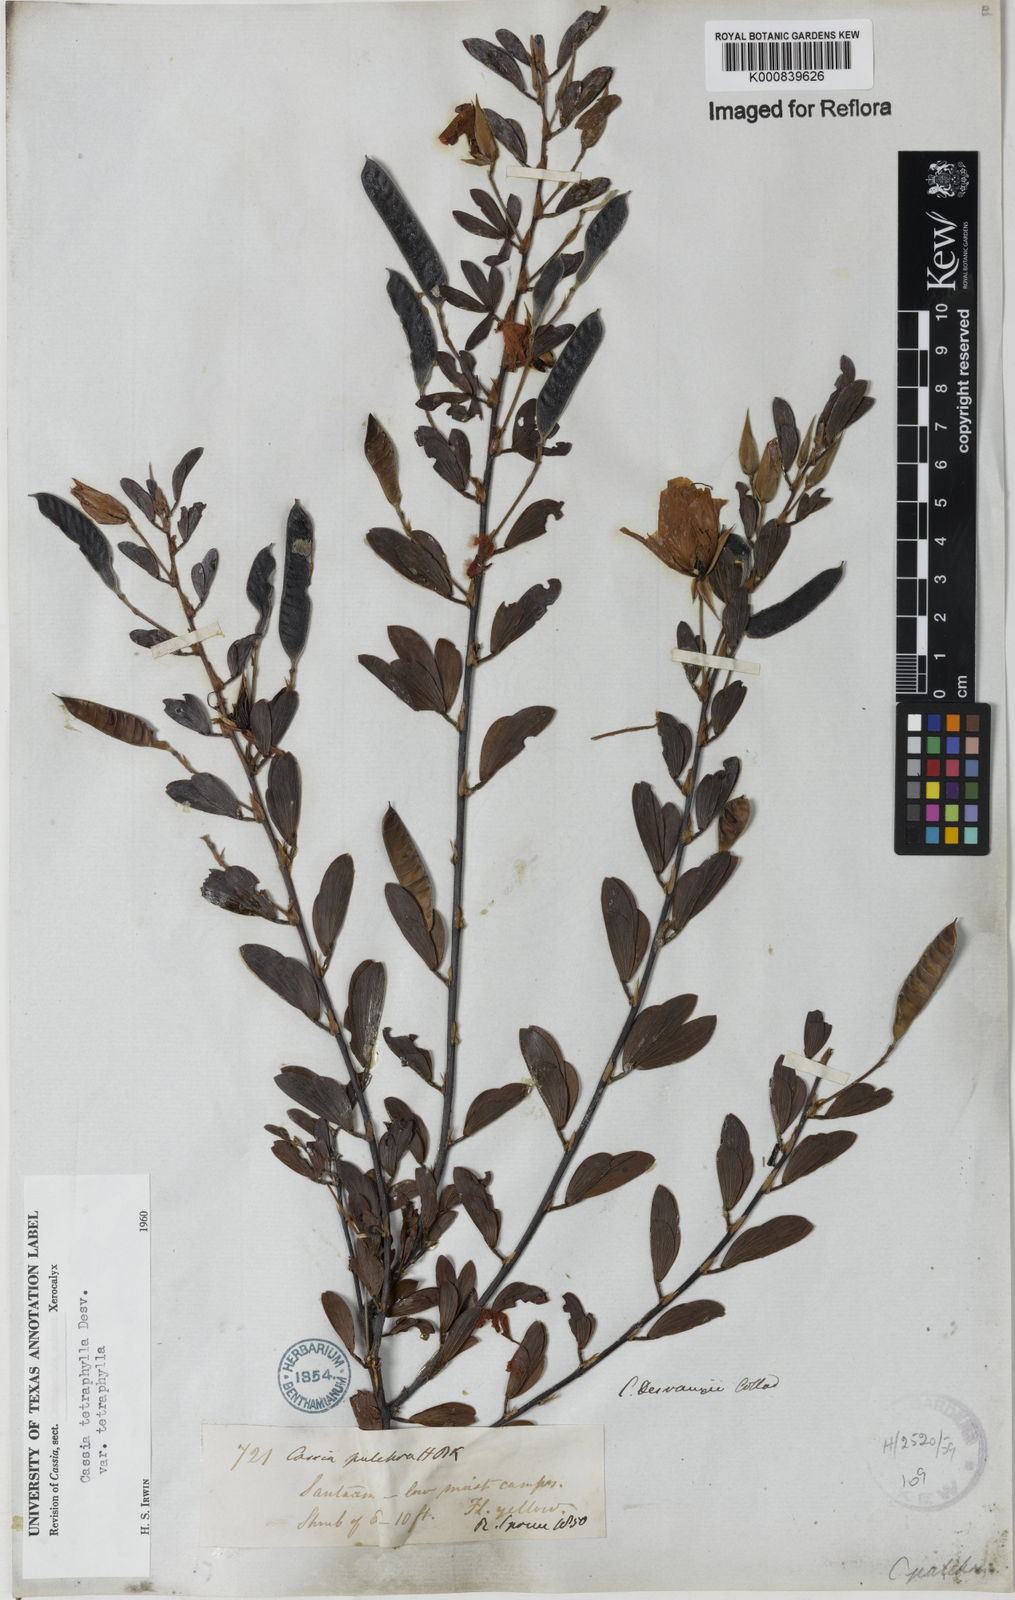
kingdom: Plantae
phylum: Tracheophyta
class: Magnoliopsida
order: Fabales
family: Fabaceae
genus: Chamaecrista
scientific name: Chamaecrista desvauxii
